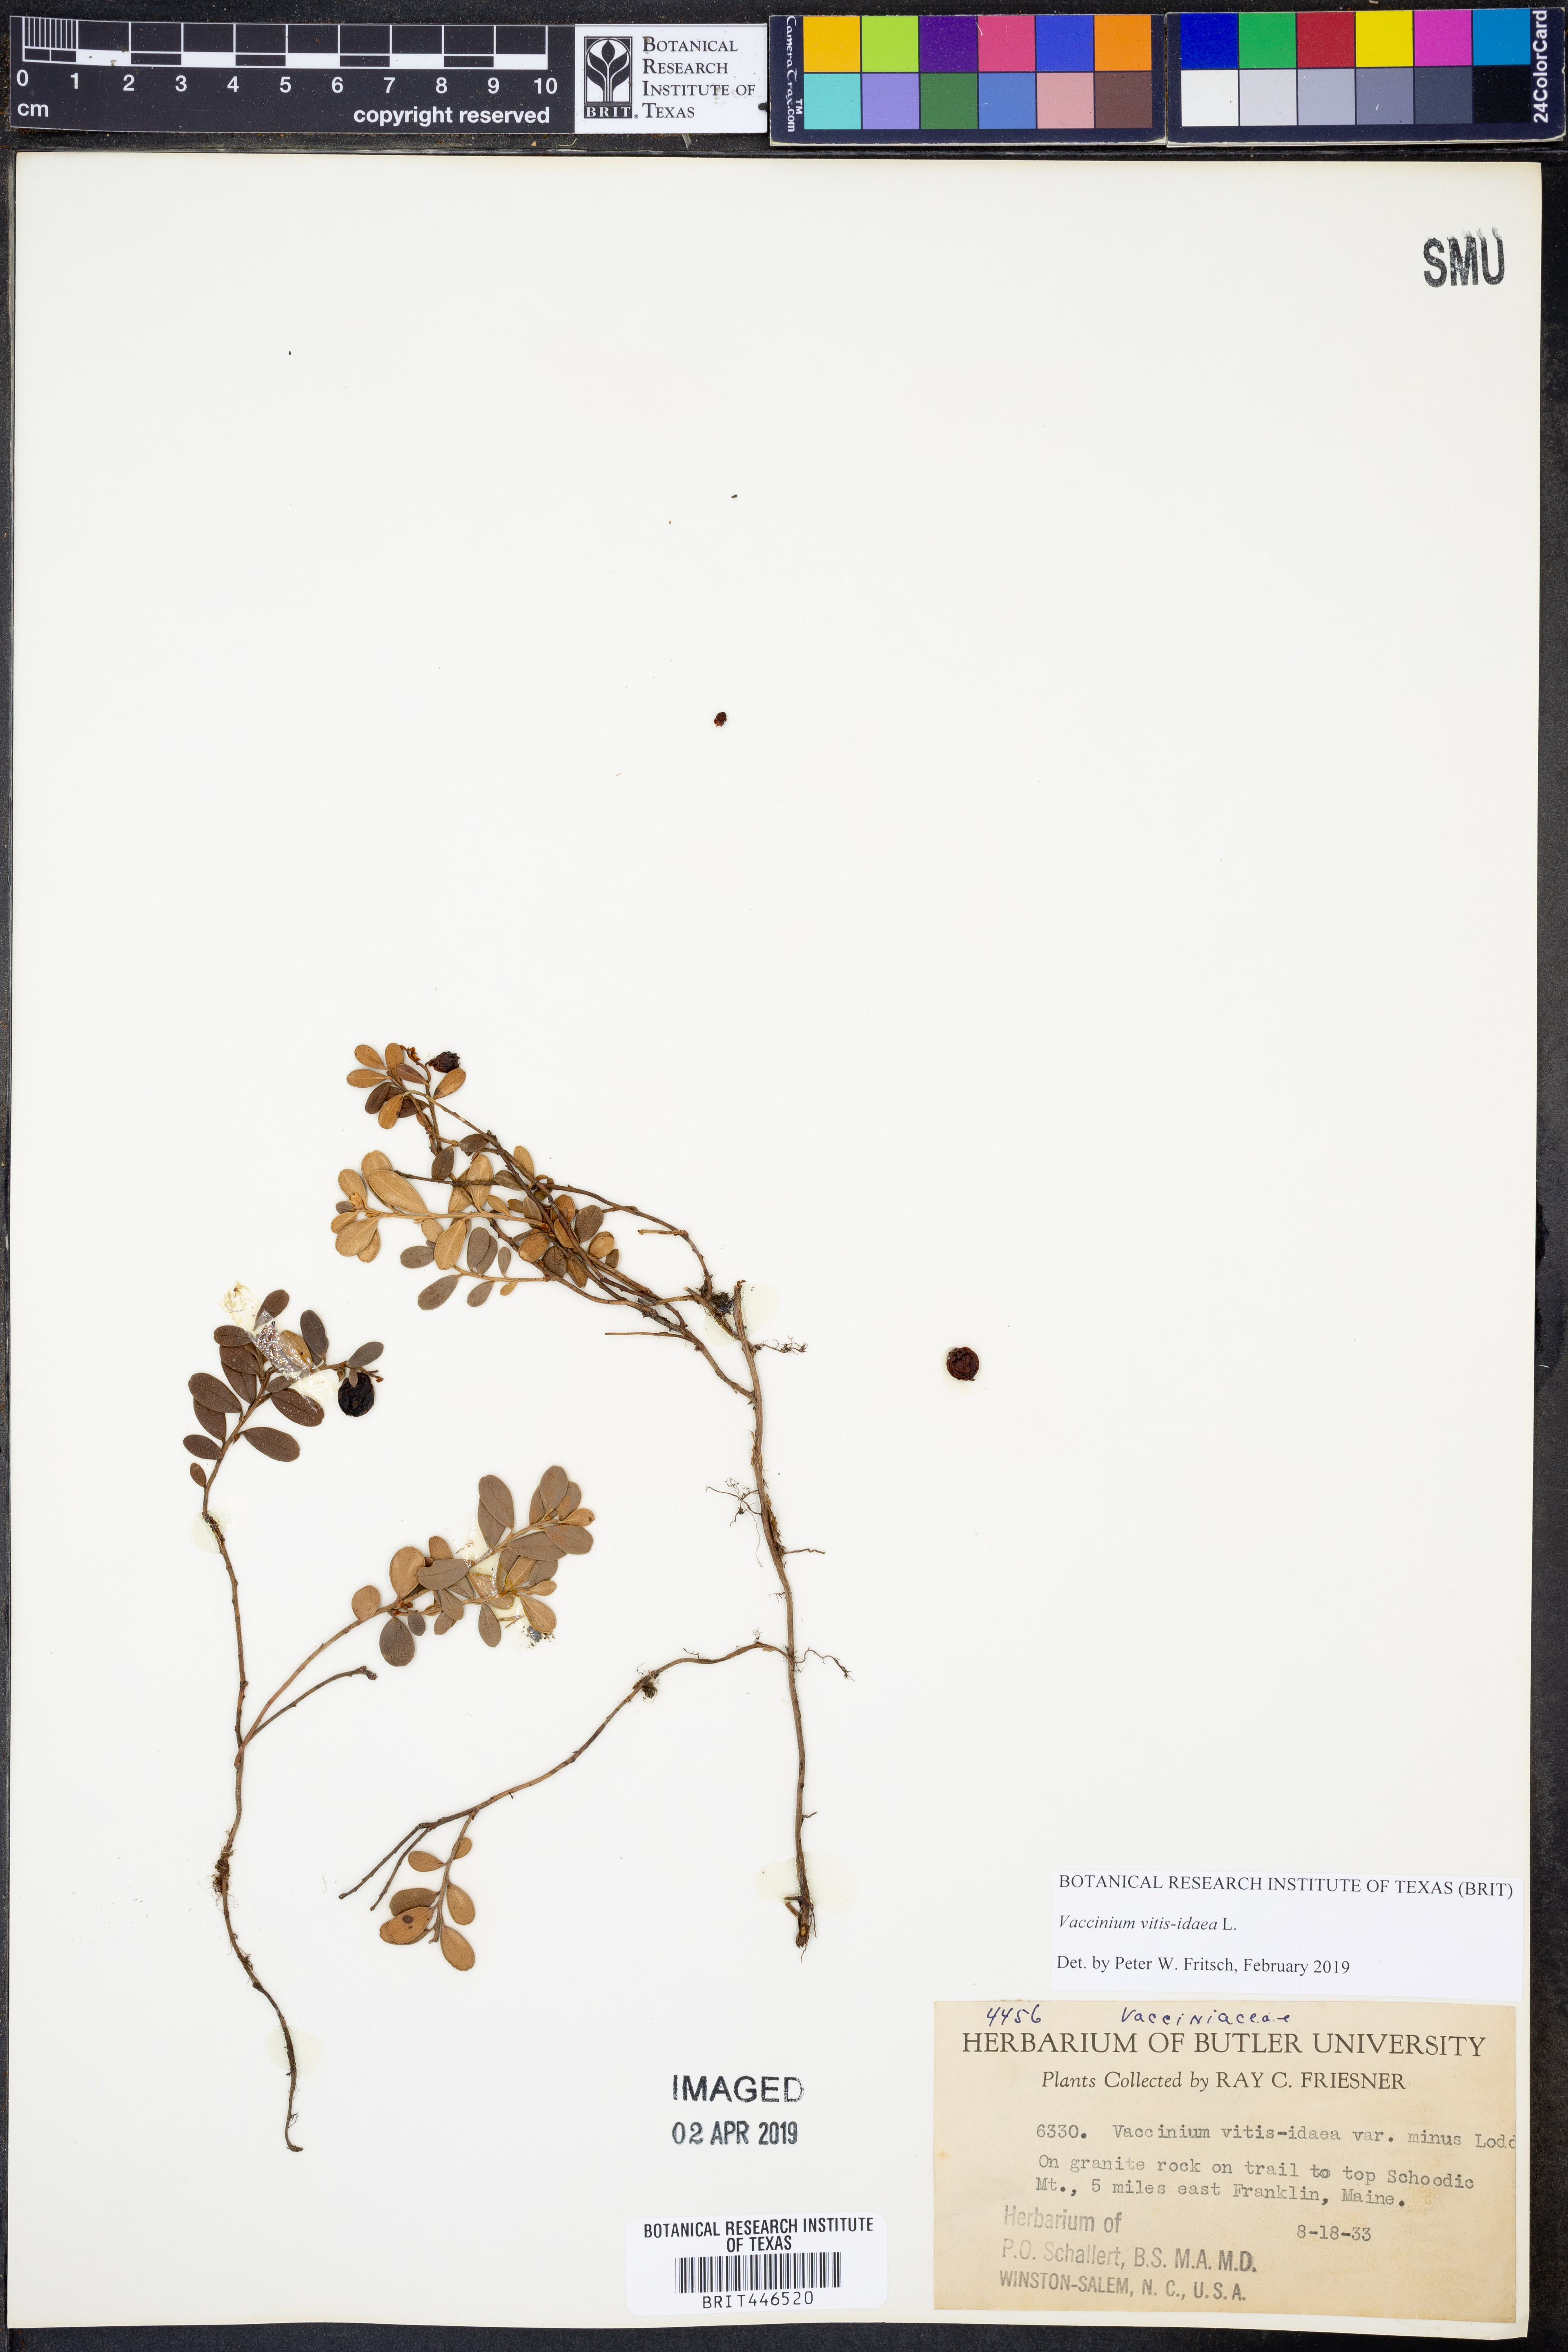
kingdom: Plantae
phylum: Tracheophyta
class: Magnoliopsida
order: Ericales
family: Ericaceae
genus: Vaccinium
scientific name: Vaccinium vitis-idaea
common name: Cowberry
